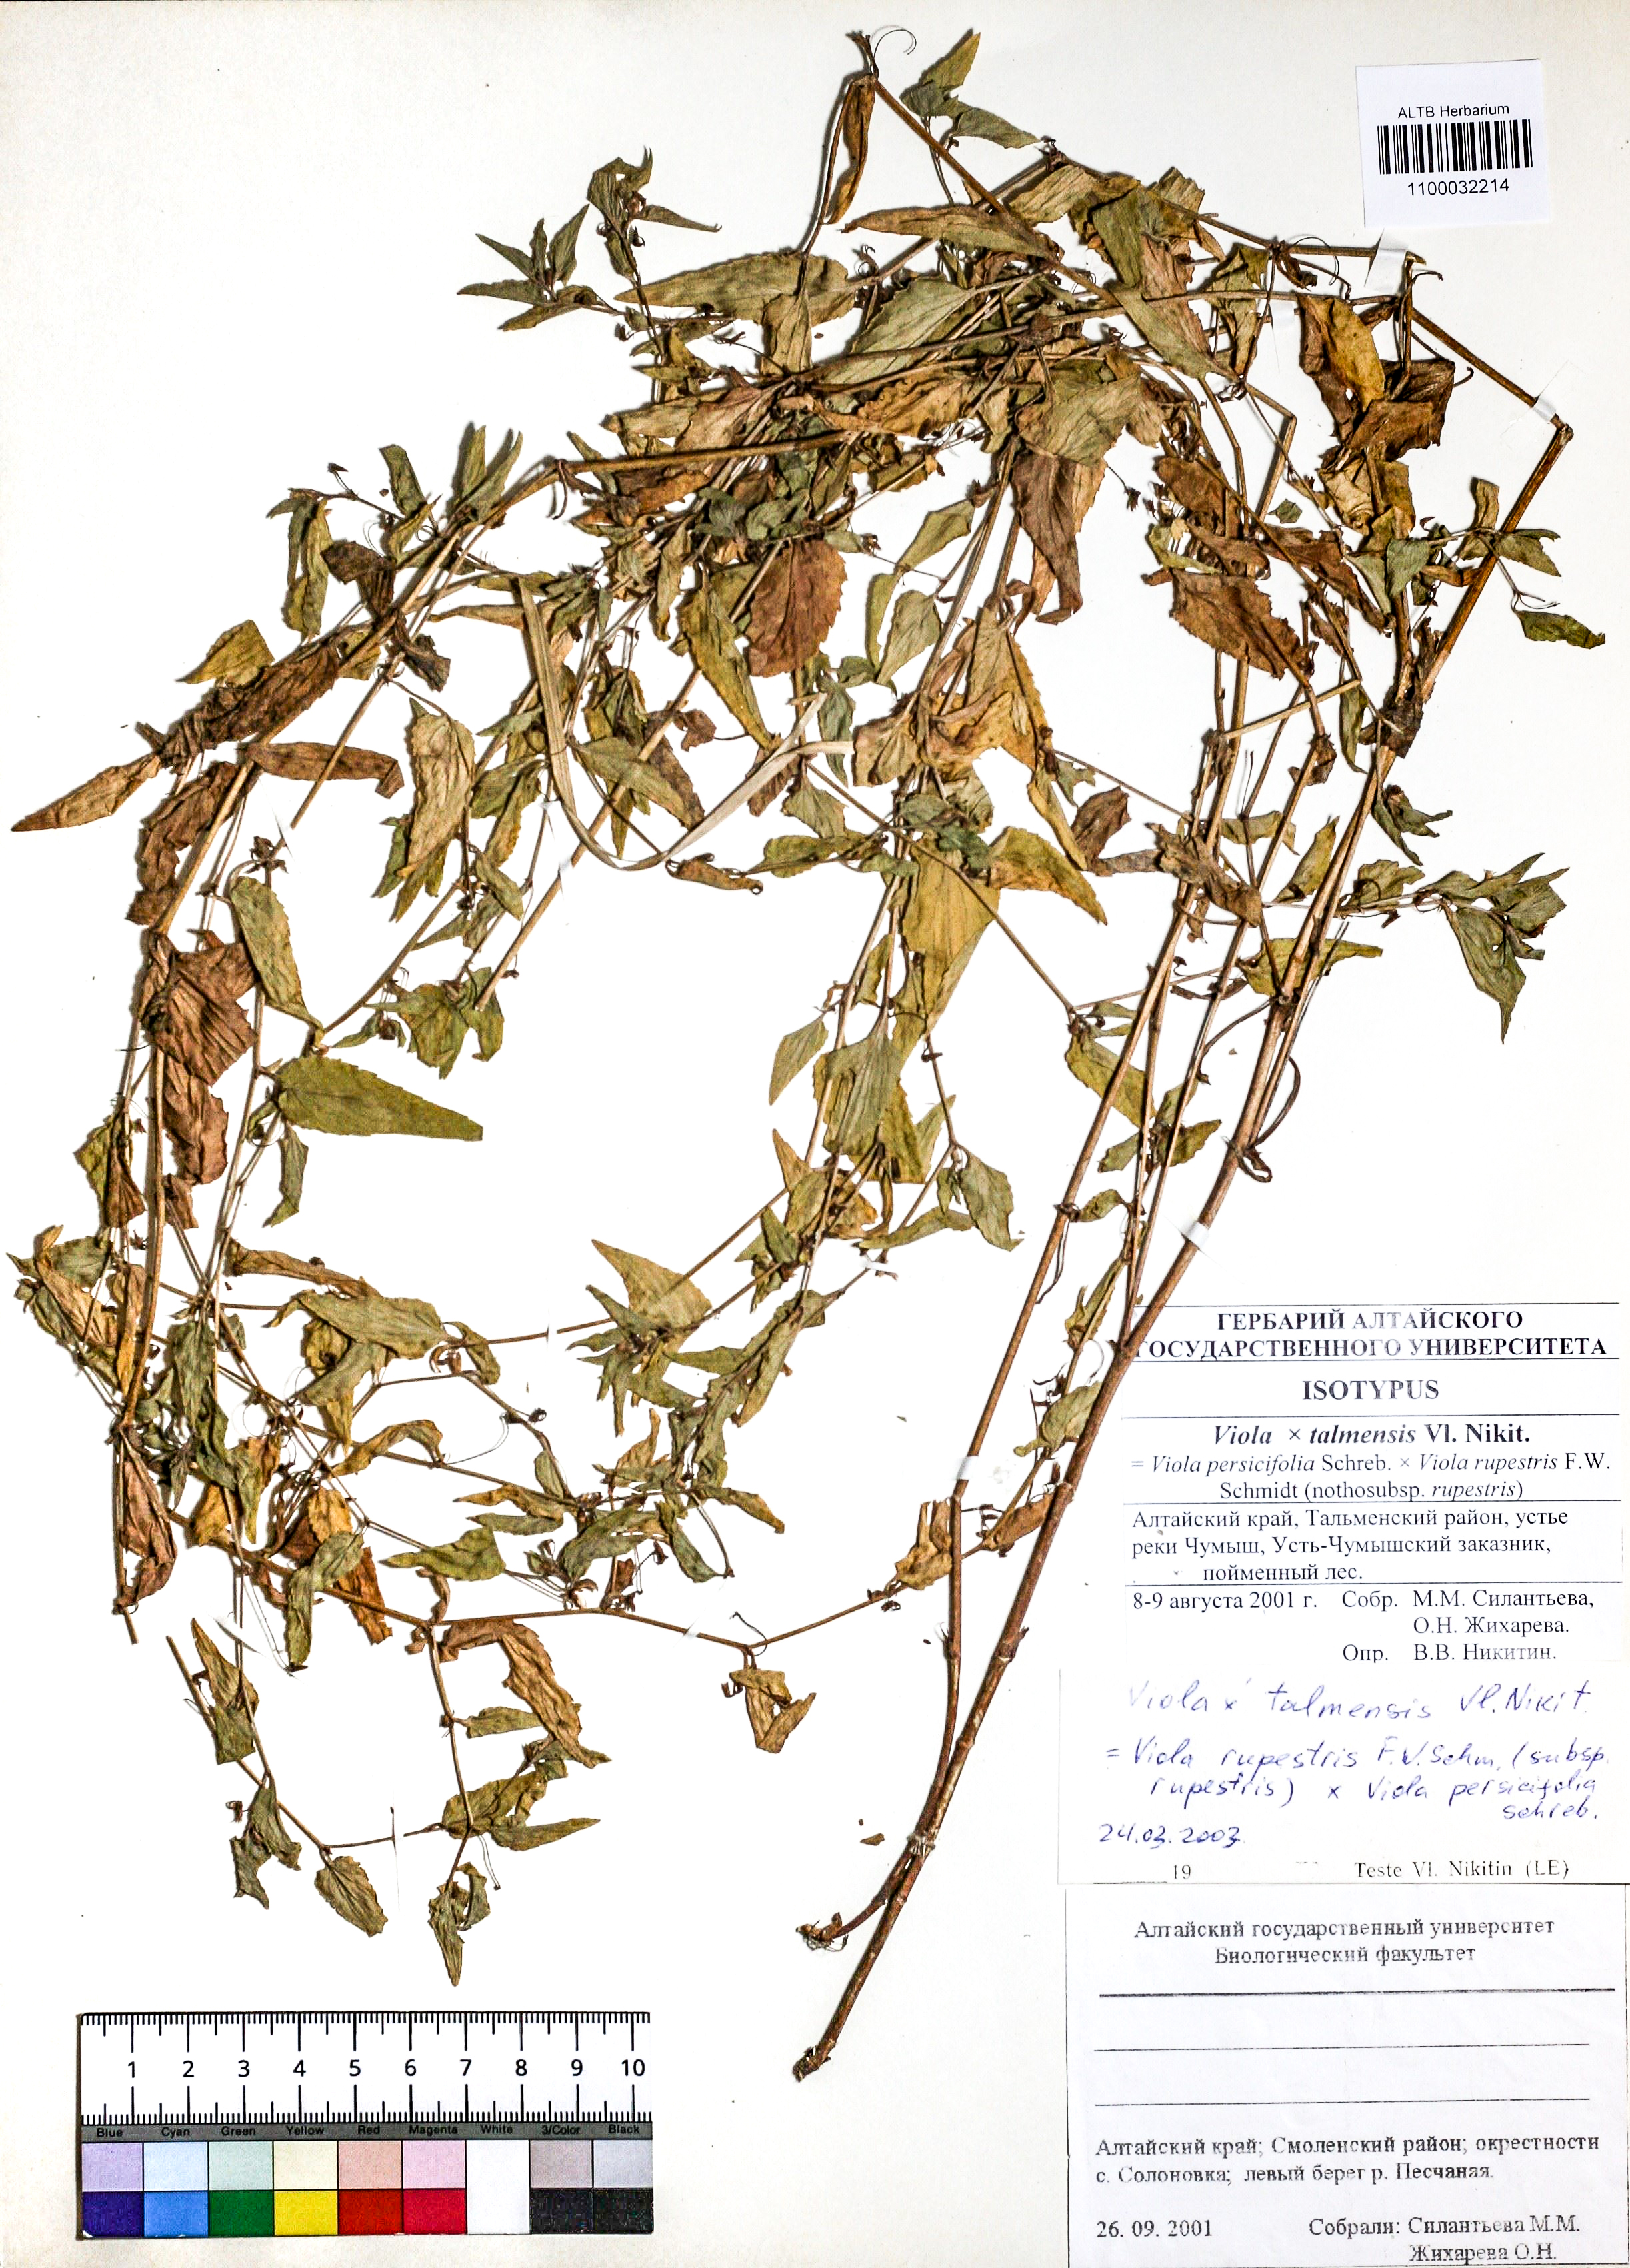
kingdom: Plantae
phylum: Tracheophyta
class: Magnoliopsida
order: Malpighiales
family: Violaceae
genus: Viola
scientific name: Viola vilnaensis
